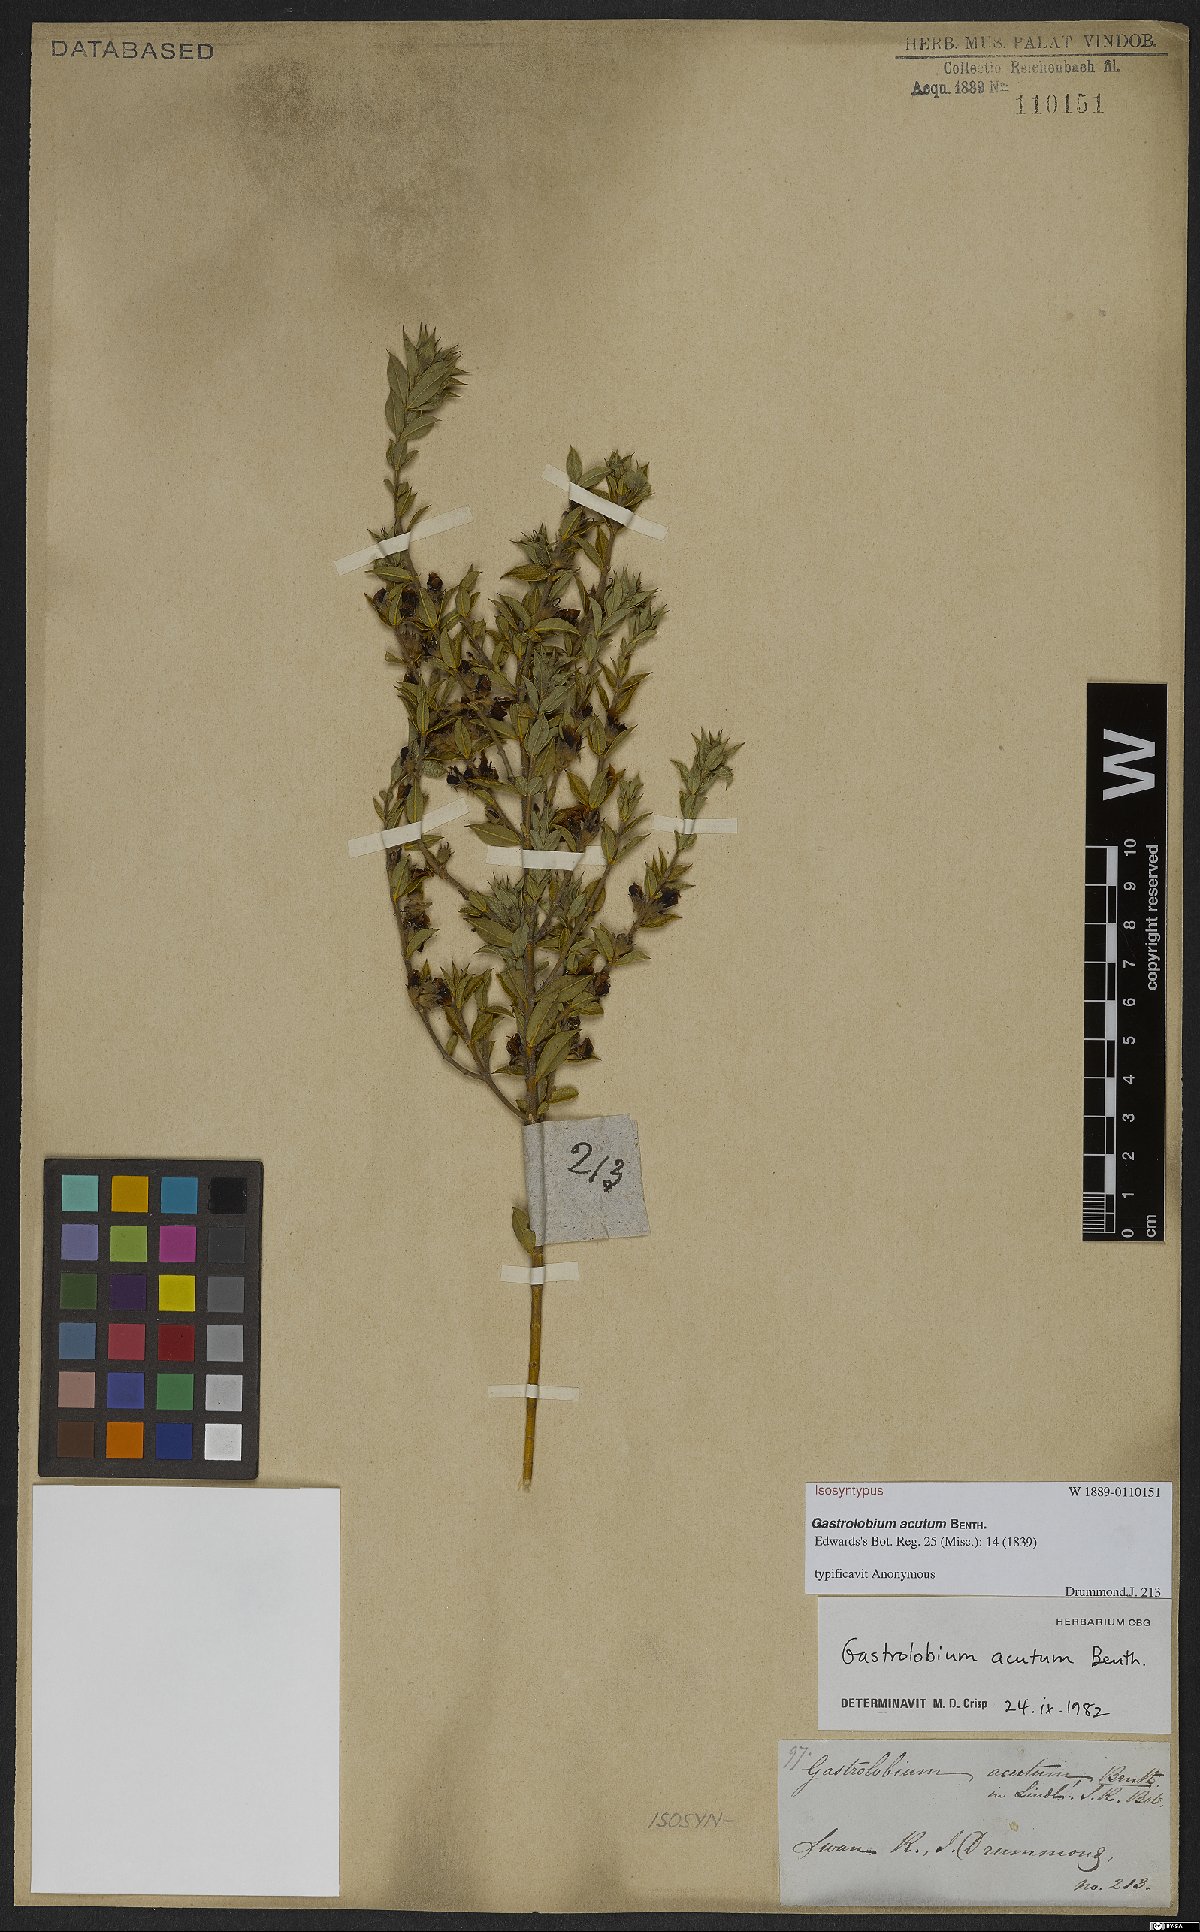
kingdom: Plantae
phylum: Tracheophyta
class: Magnoliopsida
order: Fabales
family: Fabaceae
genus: Gastrolobium
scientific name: Gastrolobium acutum
